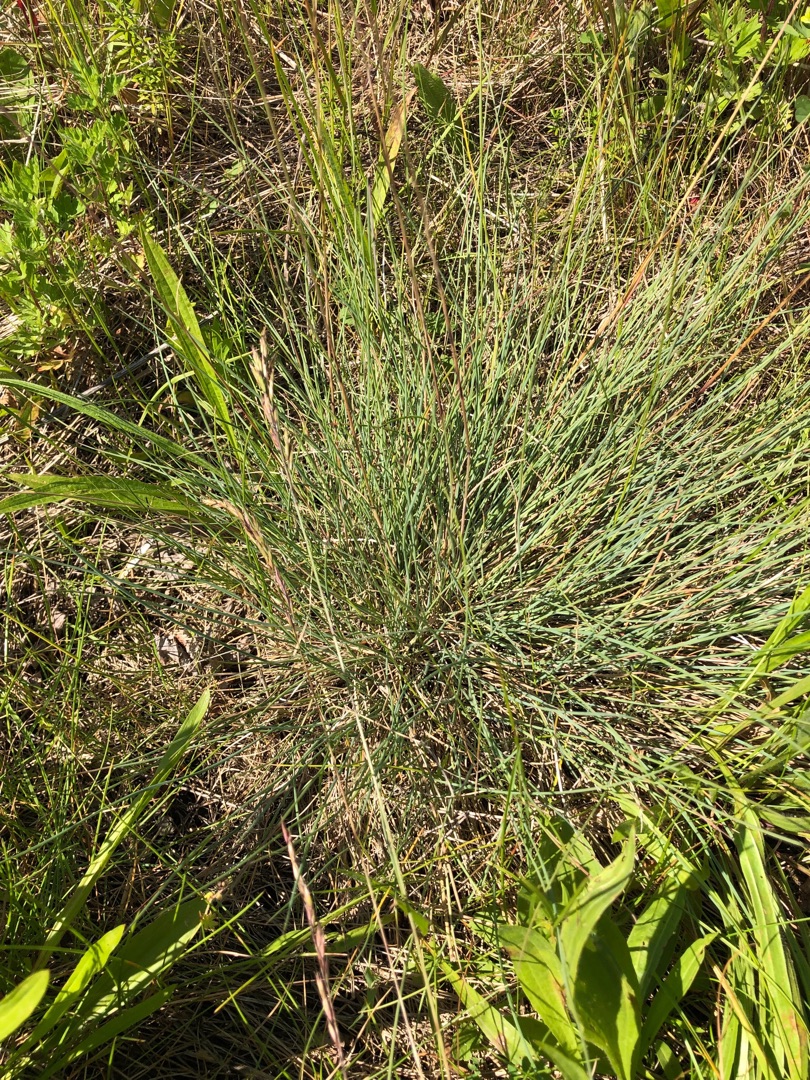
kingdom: Plantae
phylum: Tracheophyta
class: Liliopsida
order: Poales
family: Poaceae
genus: Festuca
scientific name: Festuca ovina
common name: Fåre-svingel
